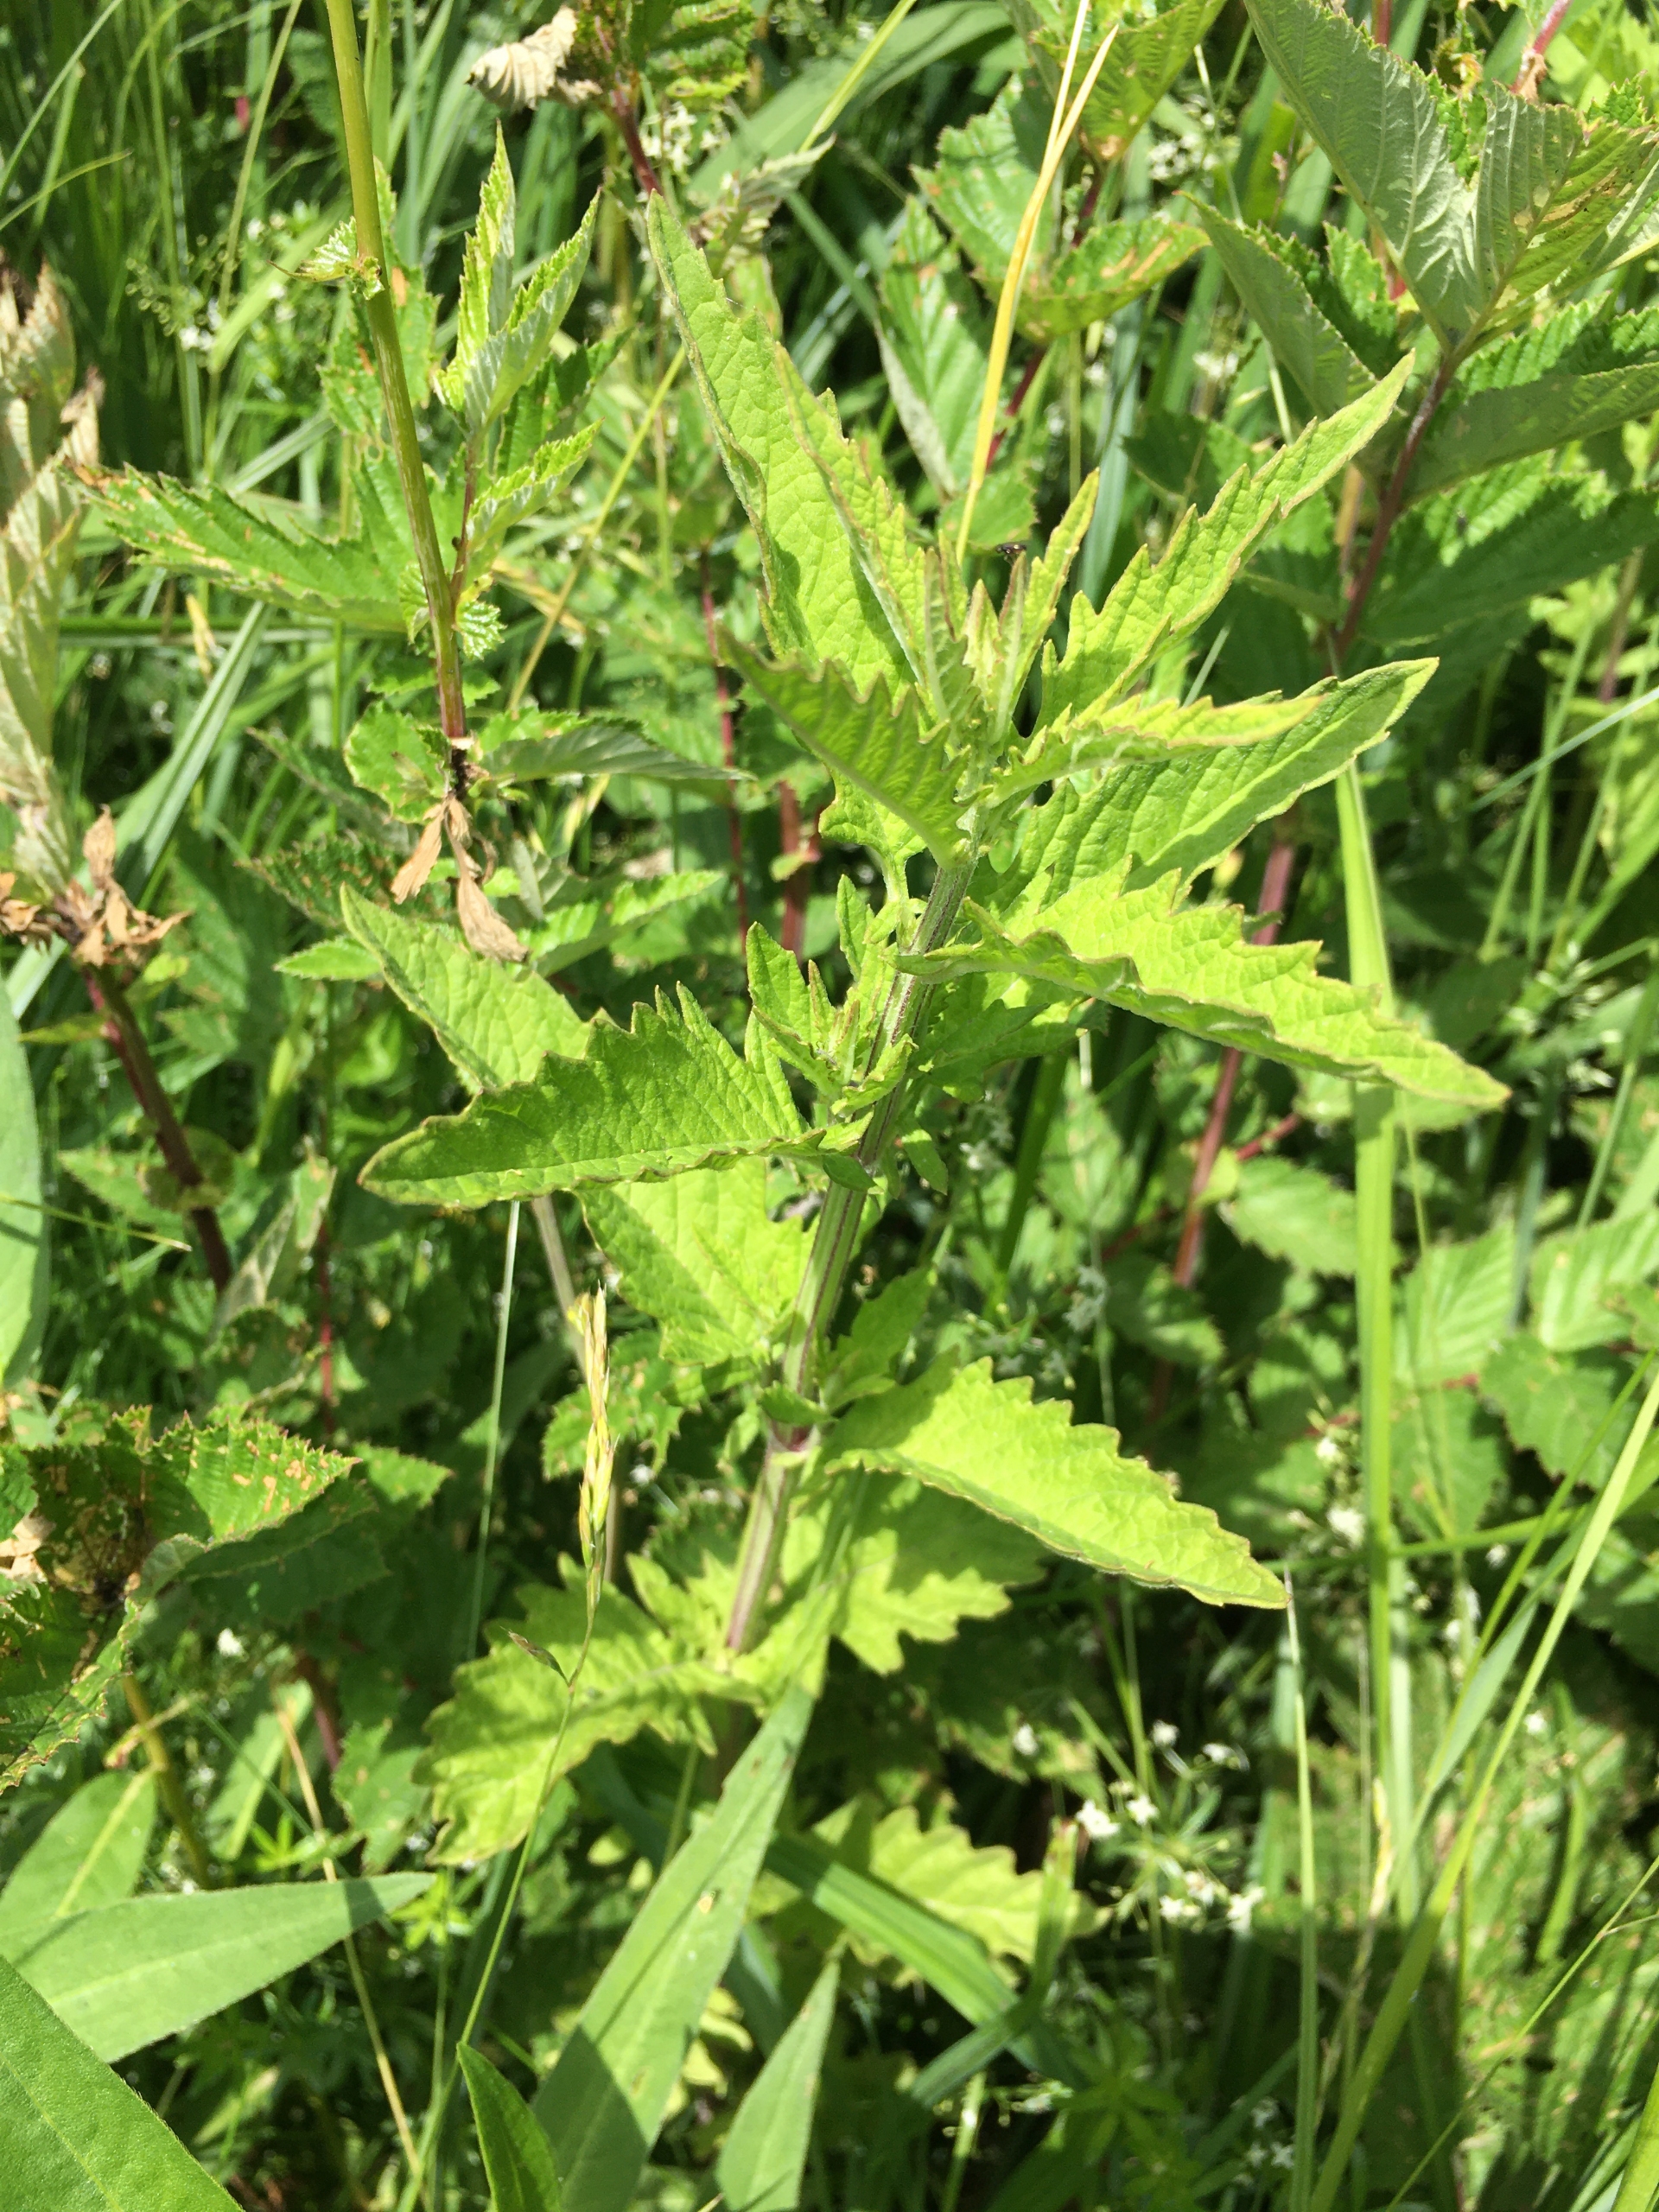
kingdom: Plantae
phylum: Tracheophyta
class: Magnoliopsida
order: Lamiales
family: Lamiaceae
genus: Lycopus
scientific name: Lycopus europaeus
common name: Sværtevæld
